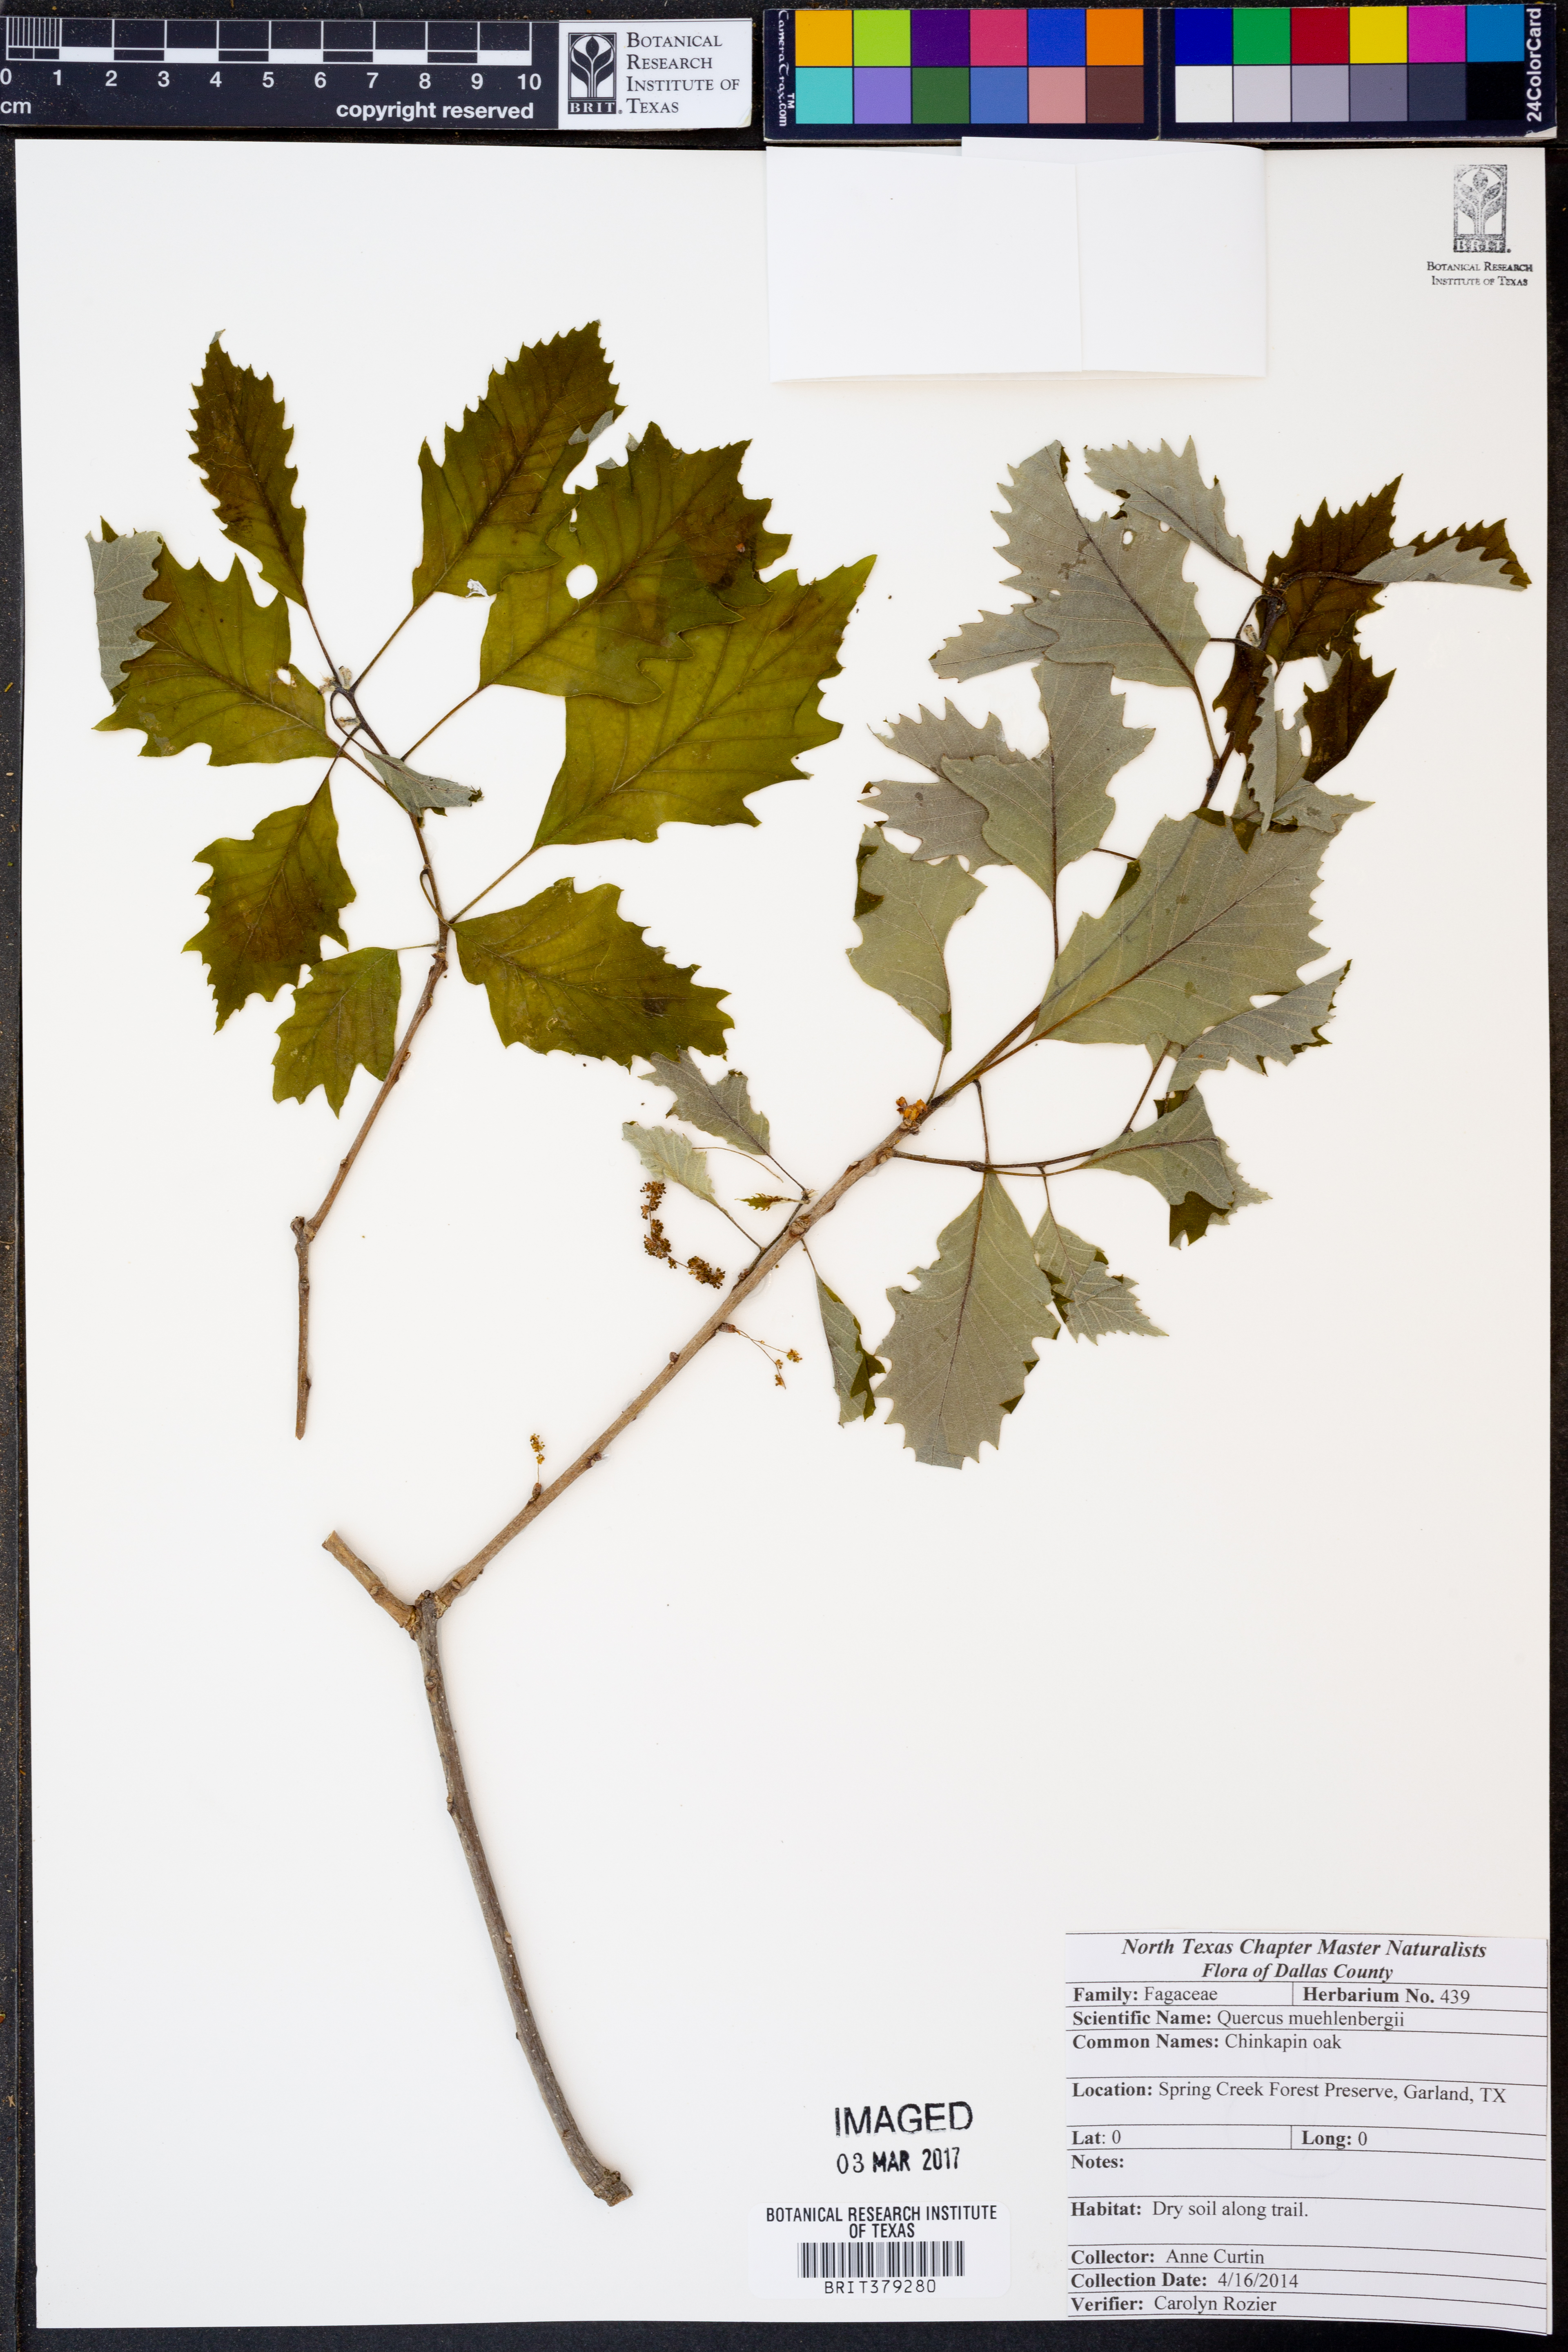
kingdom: Plantae
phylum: Tracheophyta
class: Magnoliopsida
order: Fagales
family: Fagaceae
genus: Quercus
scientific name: Quercus muehlenbergii
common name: Chinkapin oak
